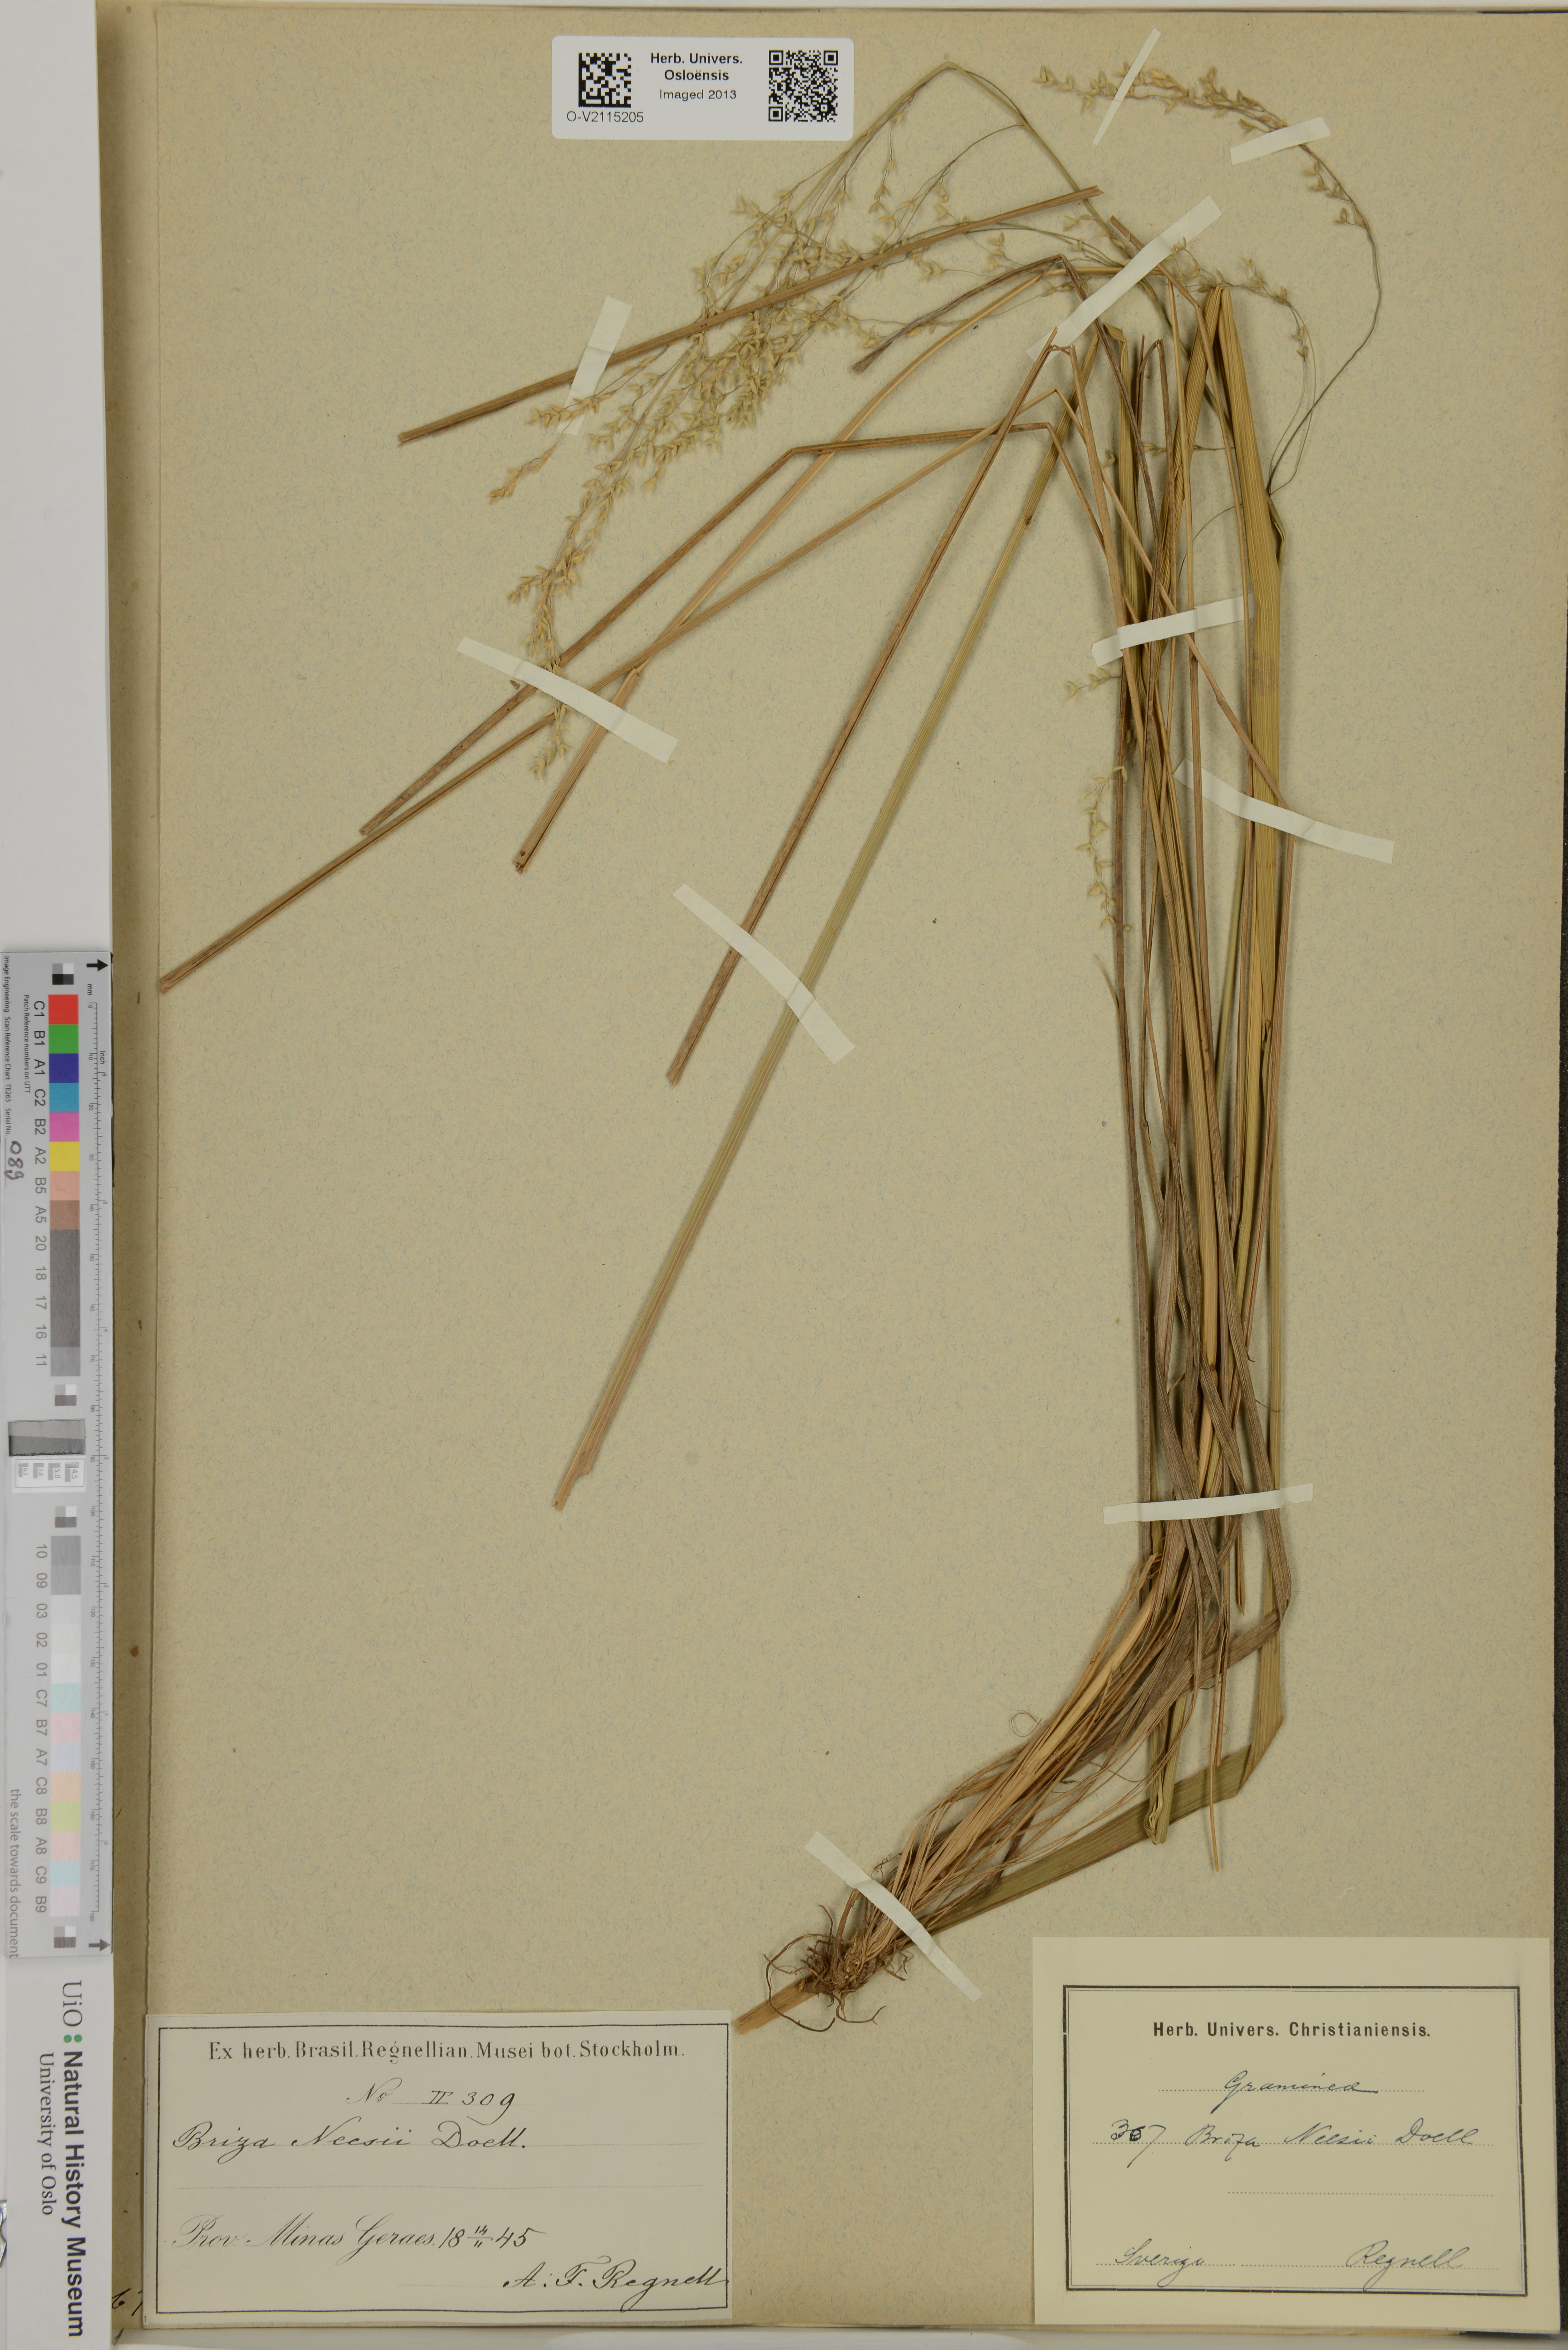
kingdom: Plantae
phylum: Tracheophyta
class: Liliopsida
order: Poales
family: Poaceae
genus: Poidium
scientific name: Poidium calotheca
